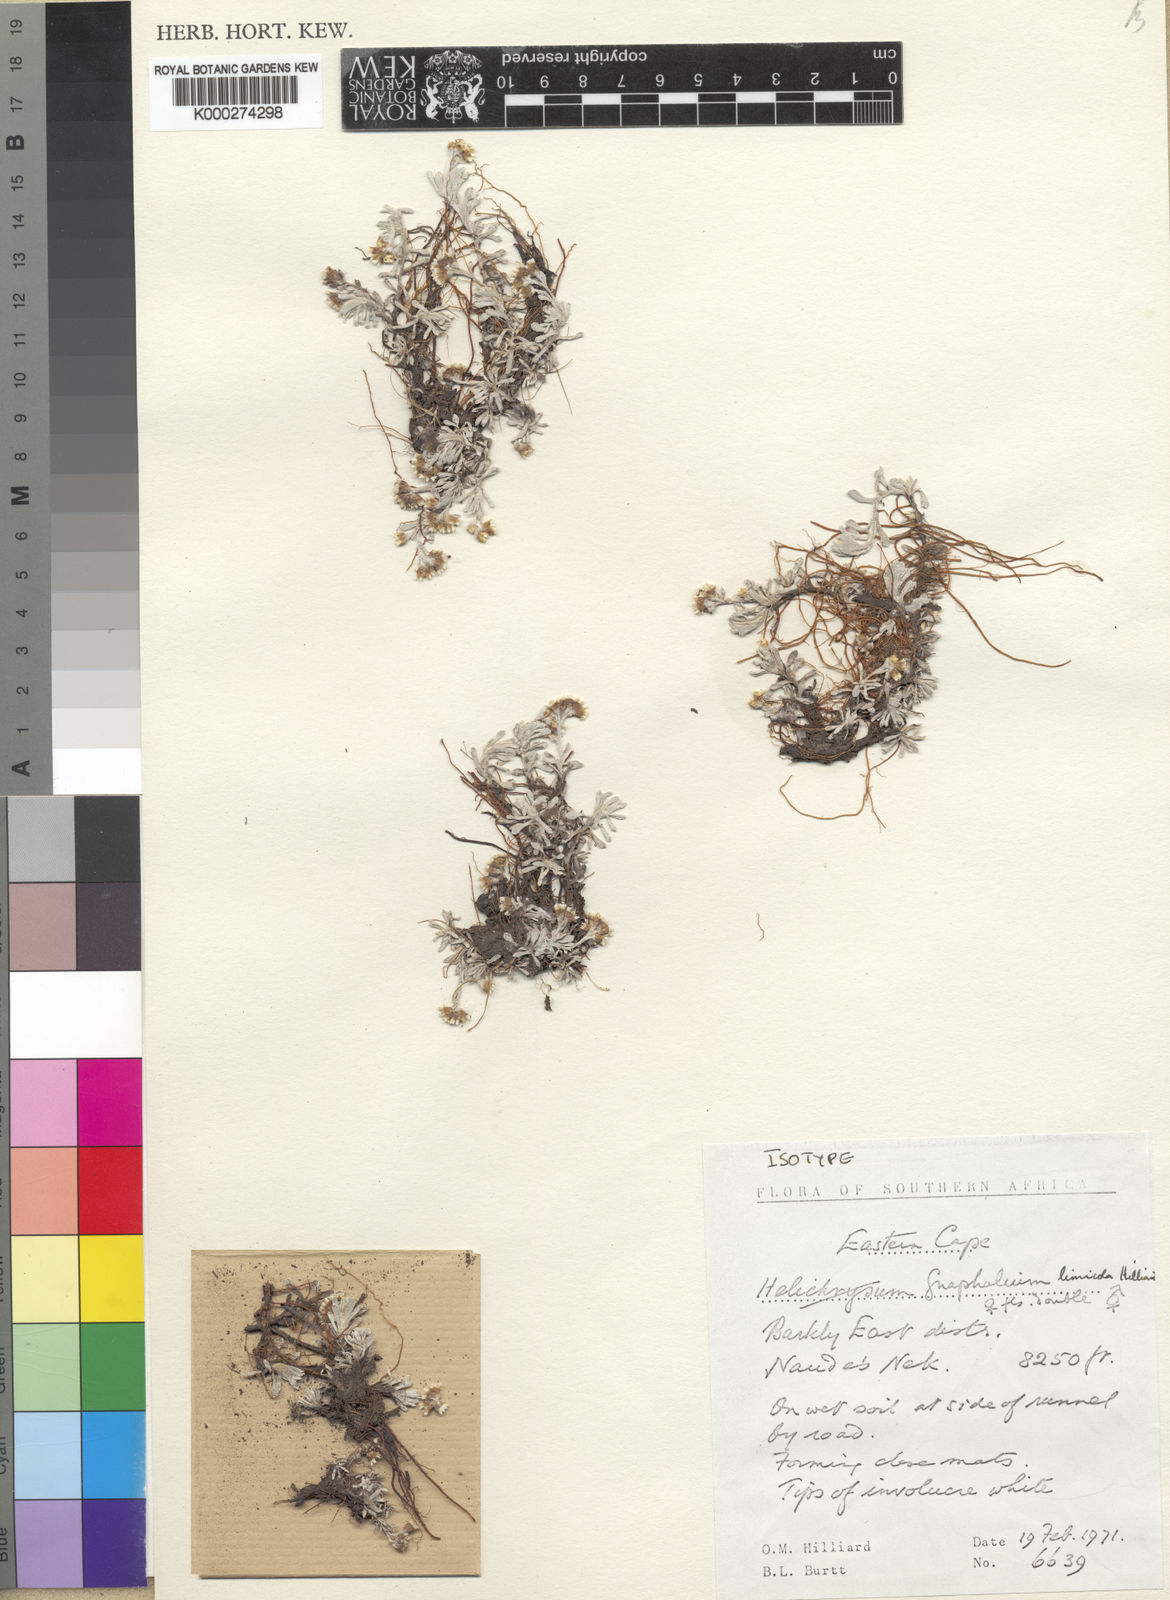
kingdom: Plantae
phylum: Tracheophyta
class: Magnoliopsida
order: Asterales
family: Asteraceae
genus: Gnaphalium
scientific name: Gnaphalium limicola
